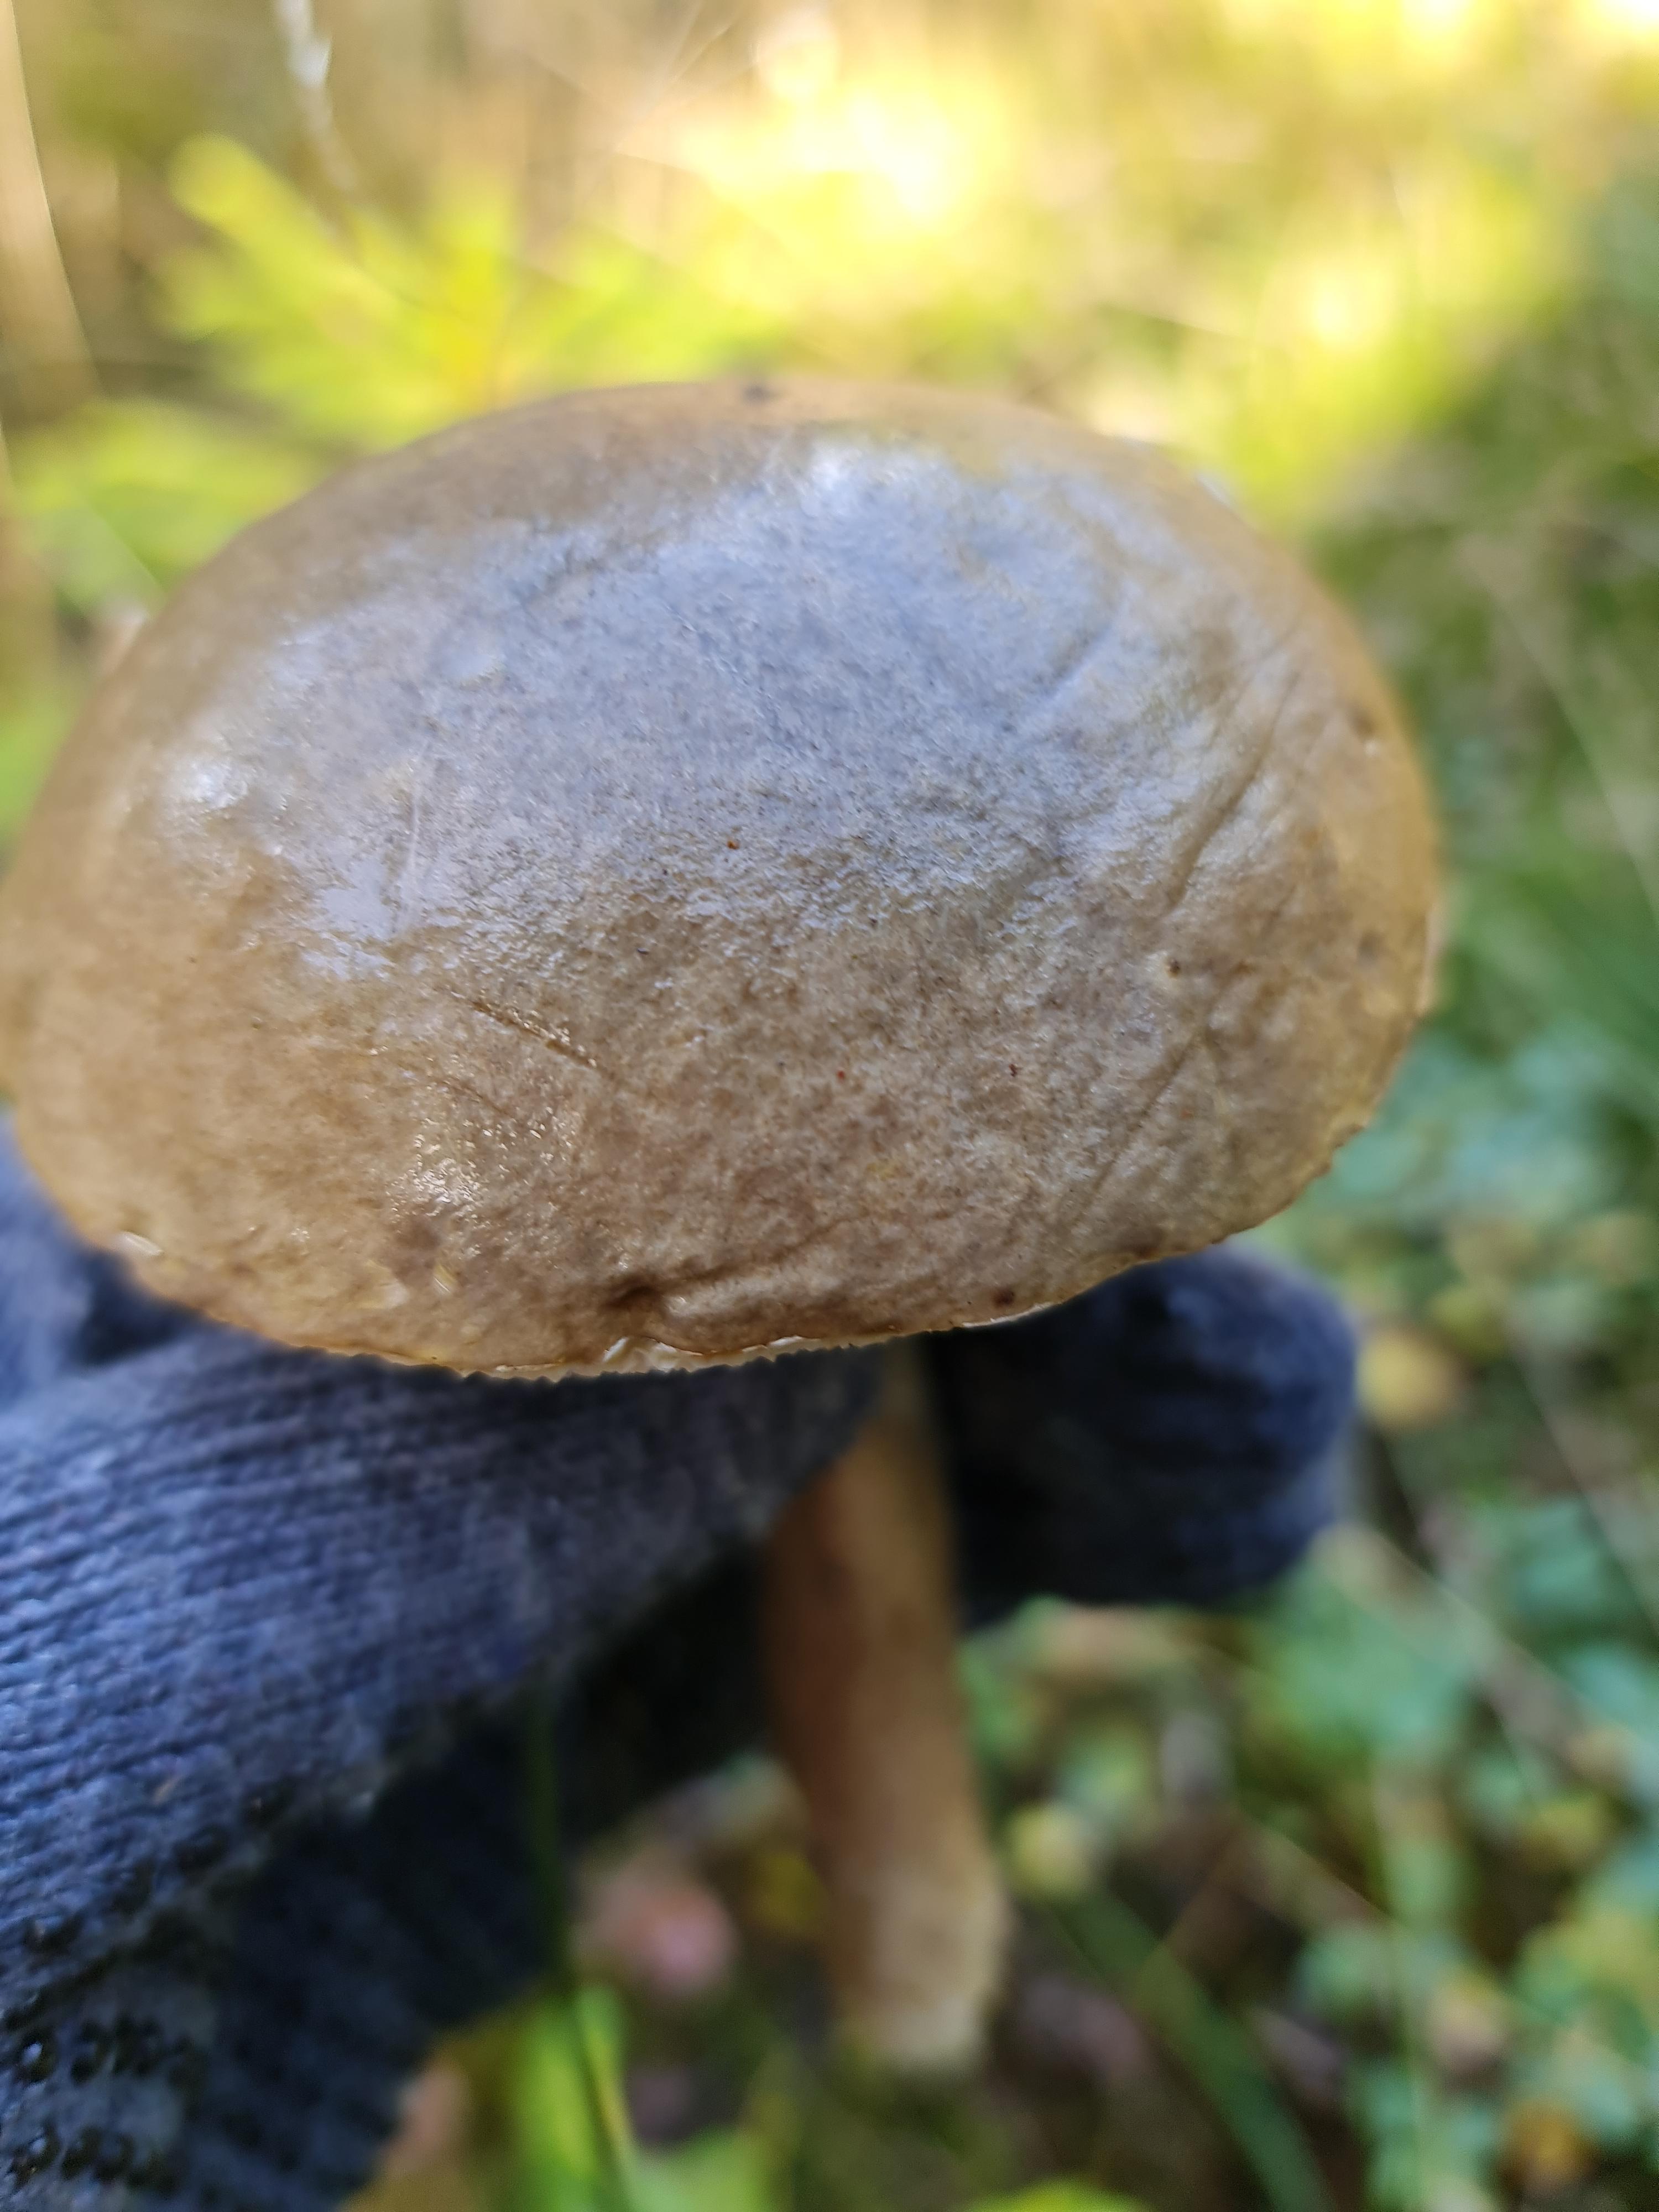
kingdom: Fungi
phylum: Basidiomycota
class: Agaricomycetes
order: Boletales
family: Boletaceae
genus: Leccinum
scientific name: Leccinum
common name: skælrørhat
